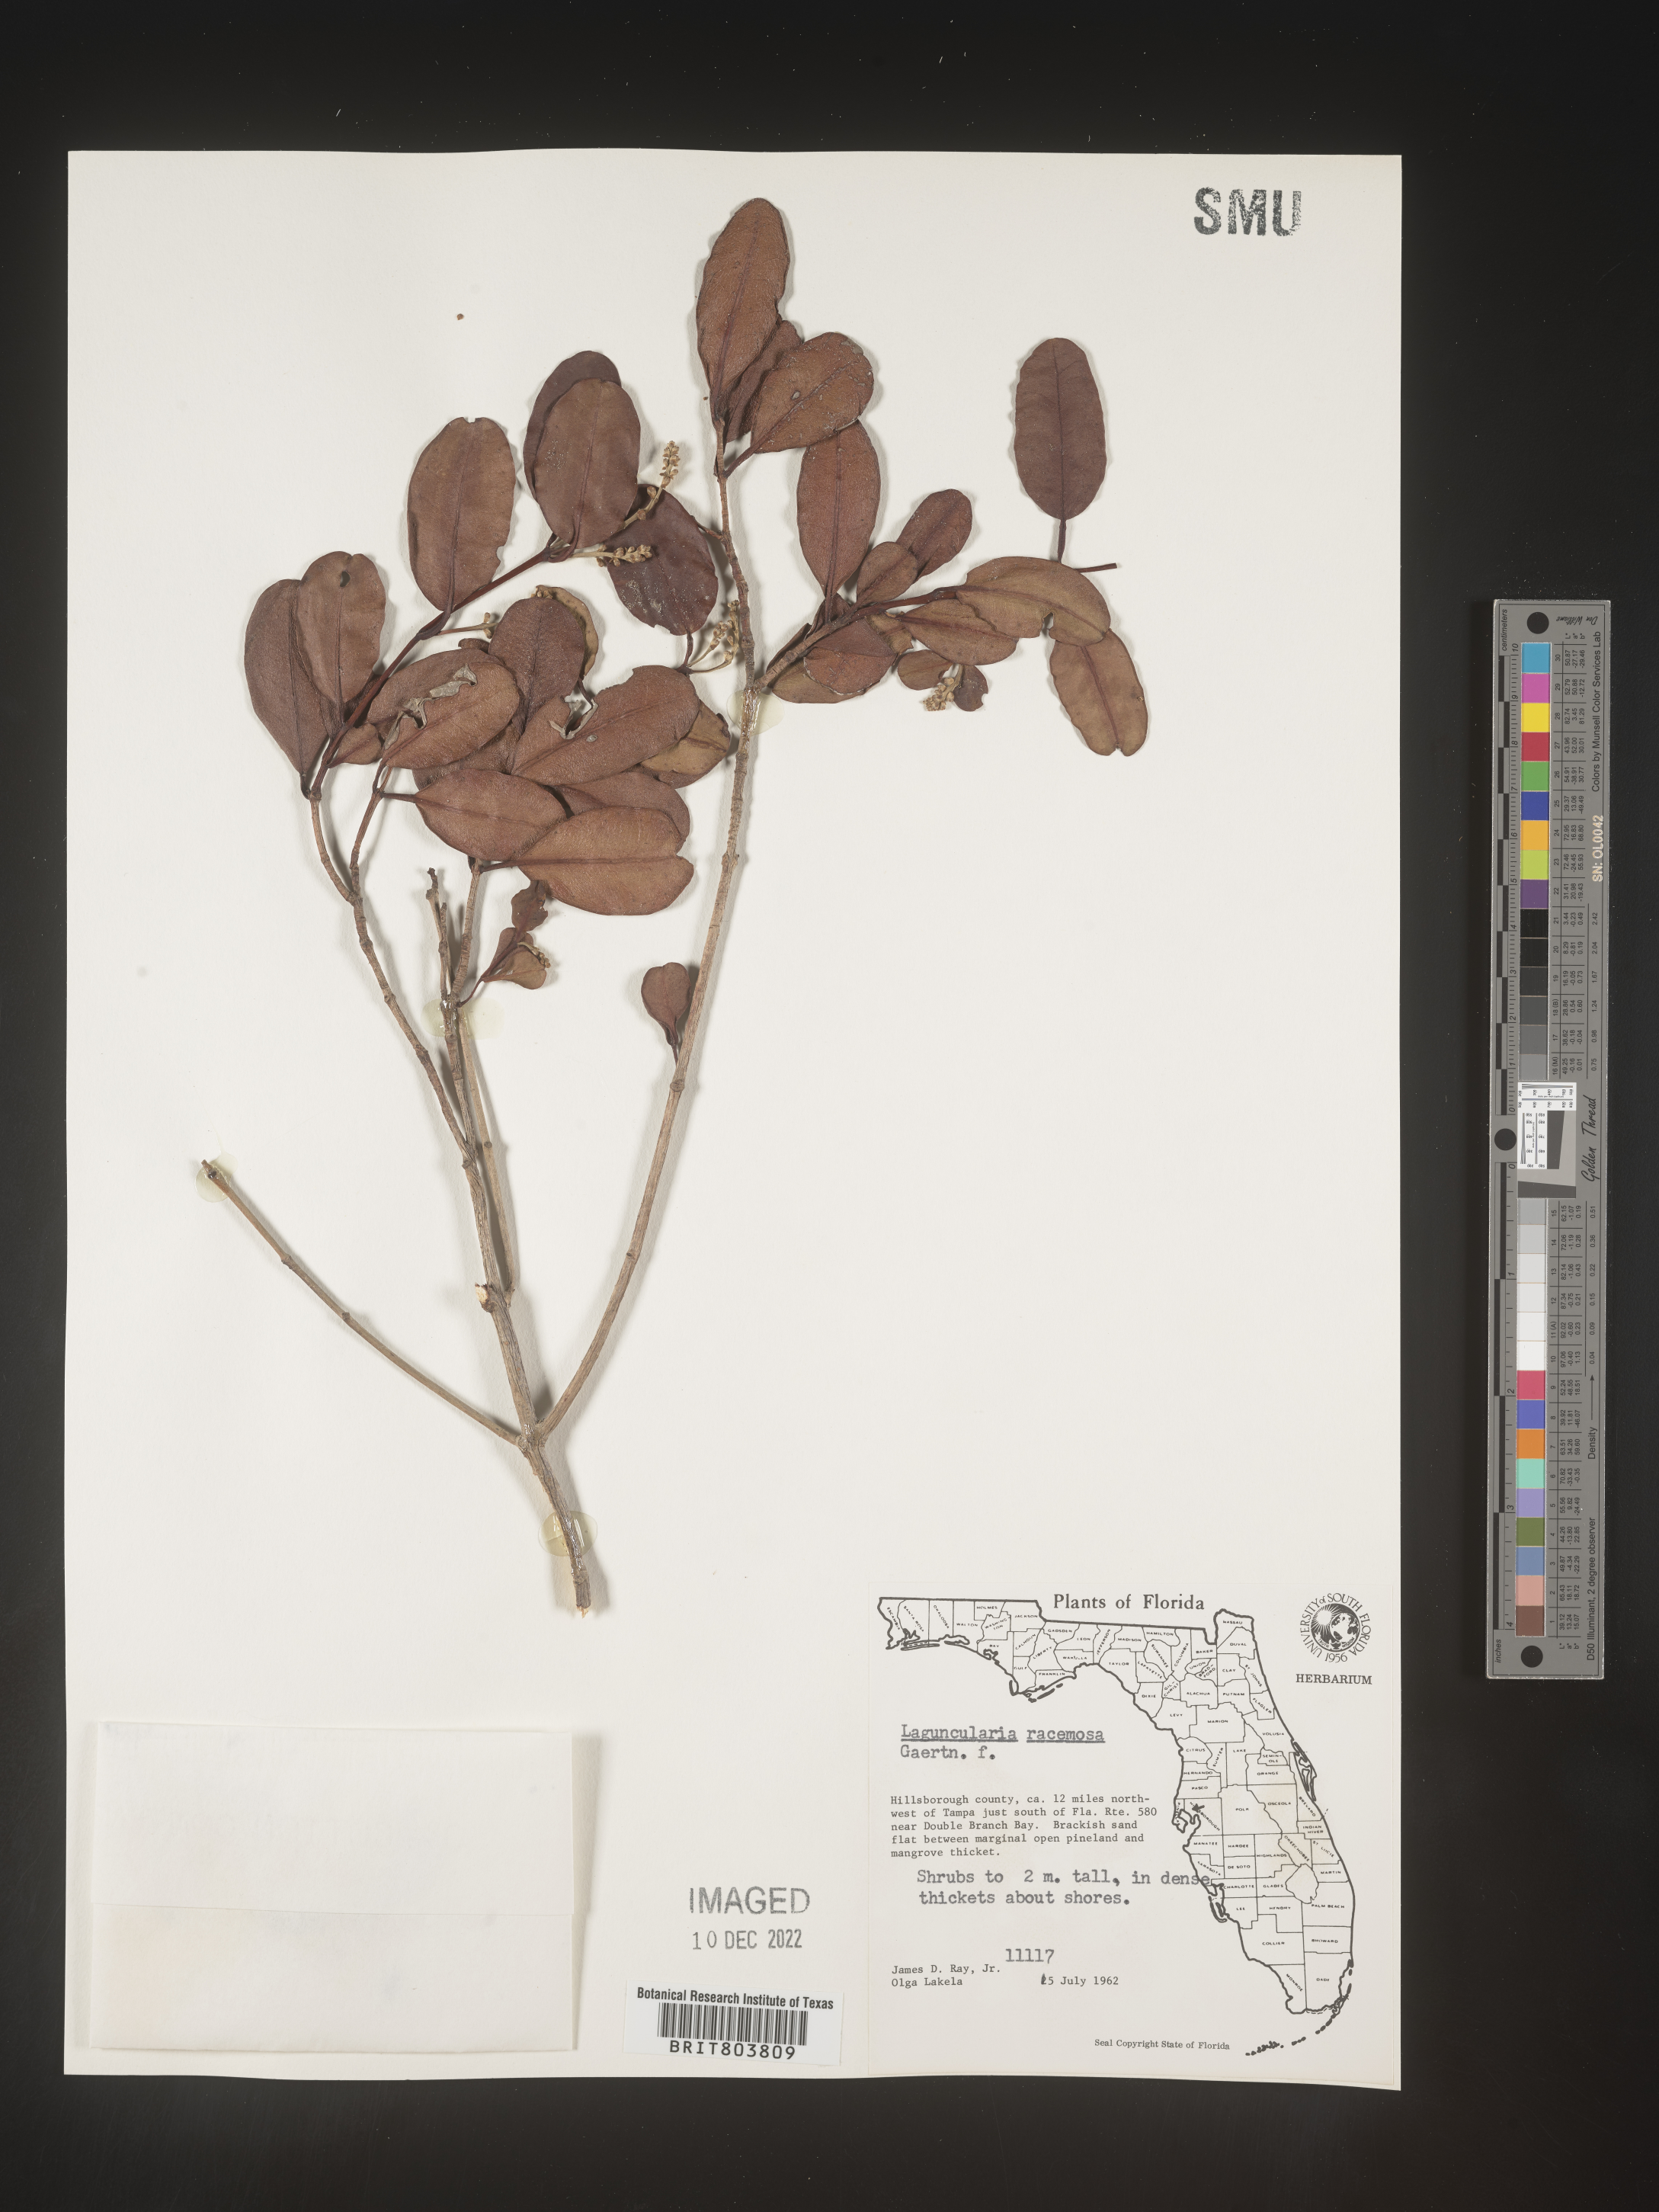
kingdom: Plantae
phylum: Tracheophyta
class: Magnoliopsida
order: Myrtales
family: Combretaceae
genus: Laguncularia
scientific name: Laguncularia
